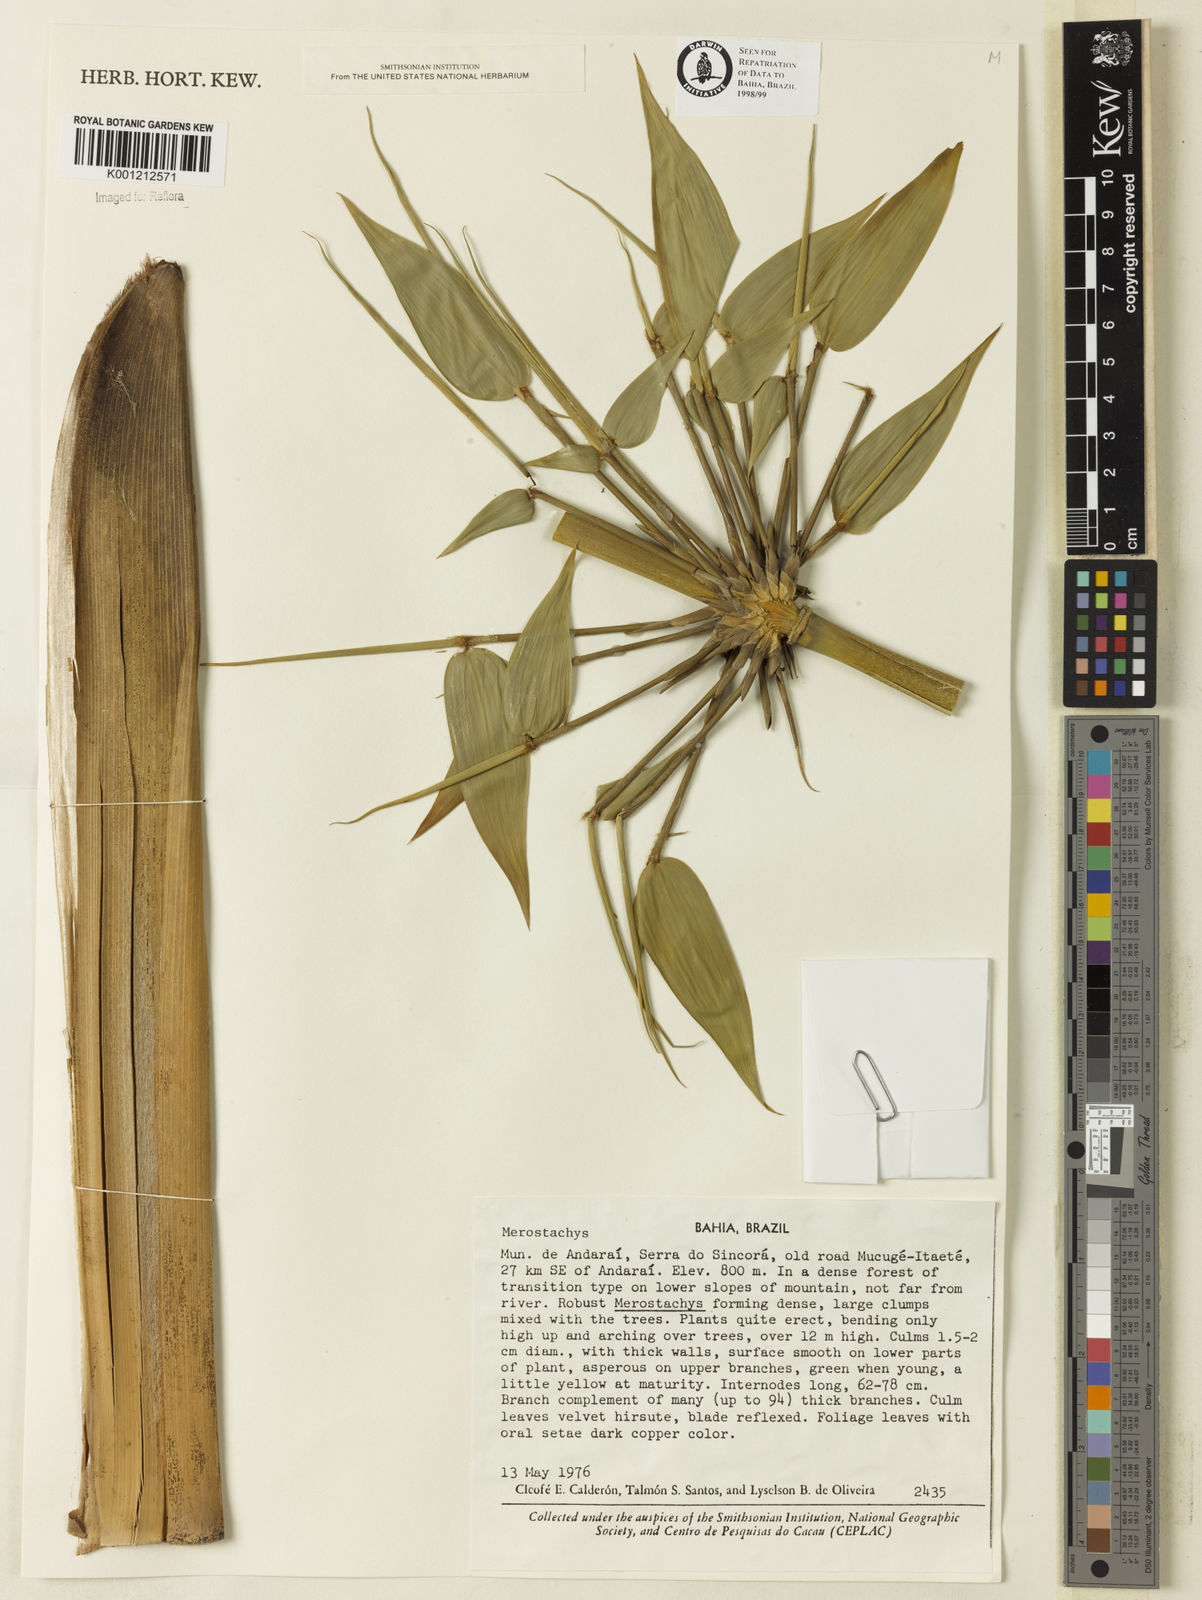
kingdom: Plantae
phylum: Tracheophyta
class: Liliopsida
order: Poales
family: Poaceae
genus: Merostachys
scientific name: Merostachys
